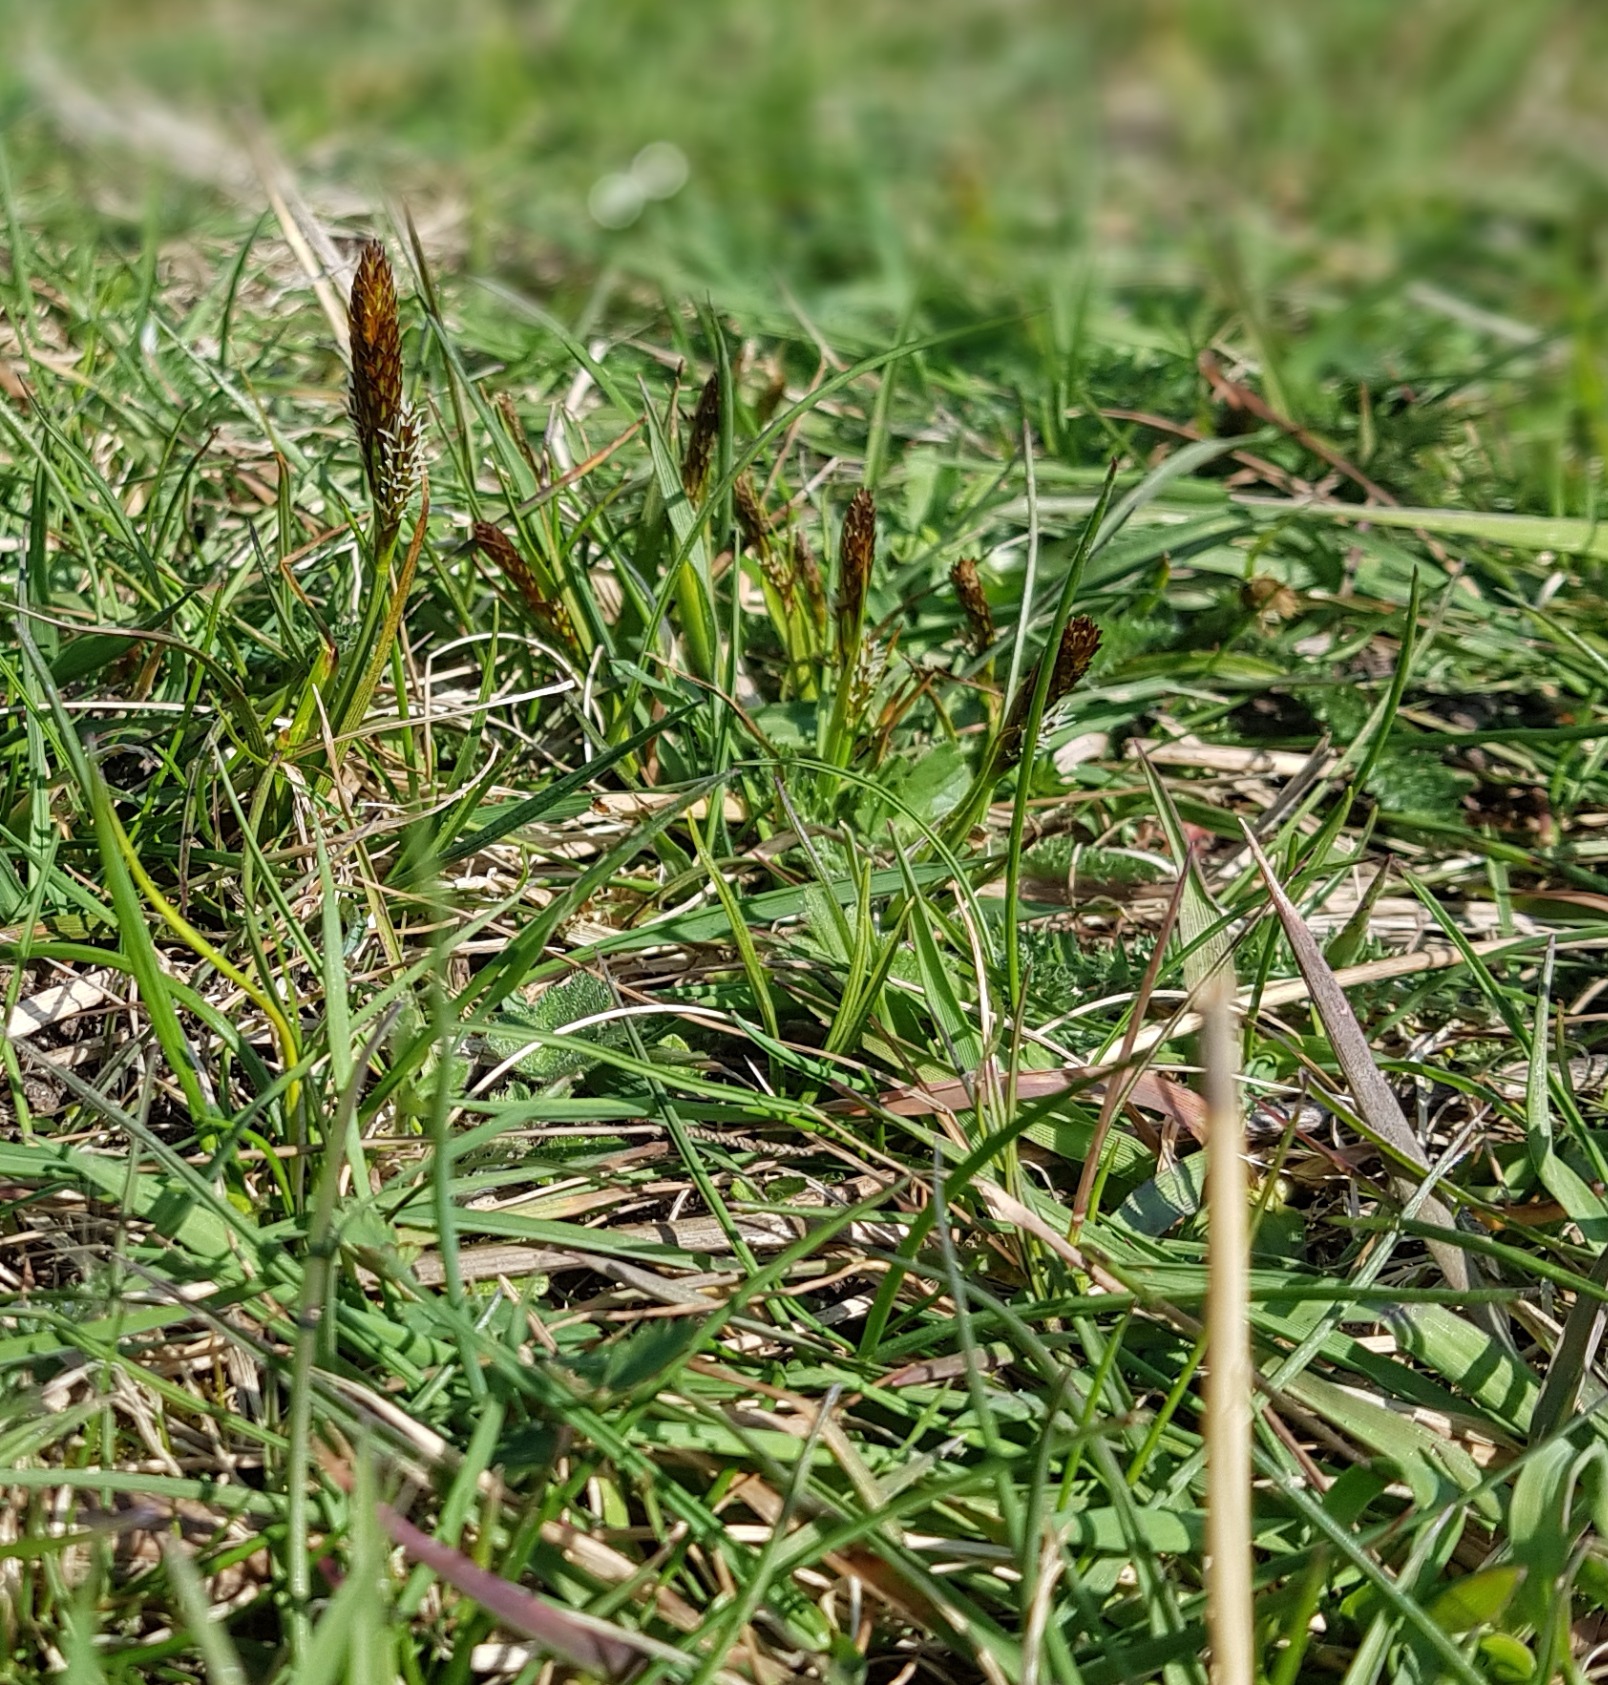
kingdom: Plantae
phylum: Tracheophyta
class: Liliopsida
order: Poales
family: Cyperaceae
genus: Carex
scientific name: Carex caryophyllea
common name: Vår-star
